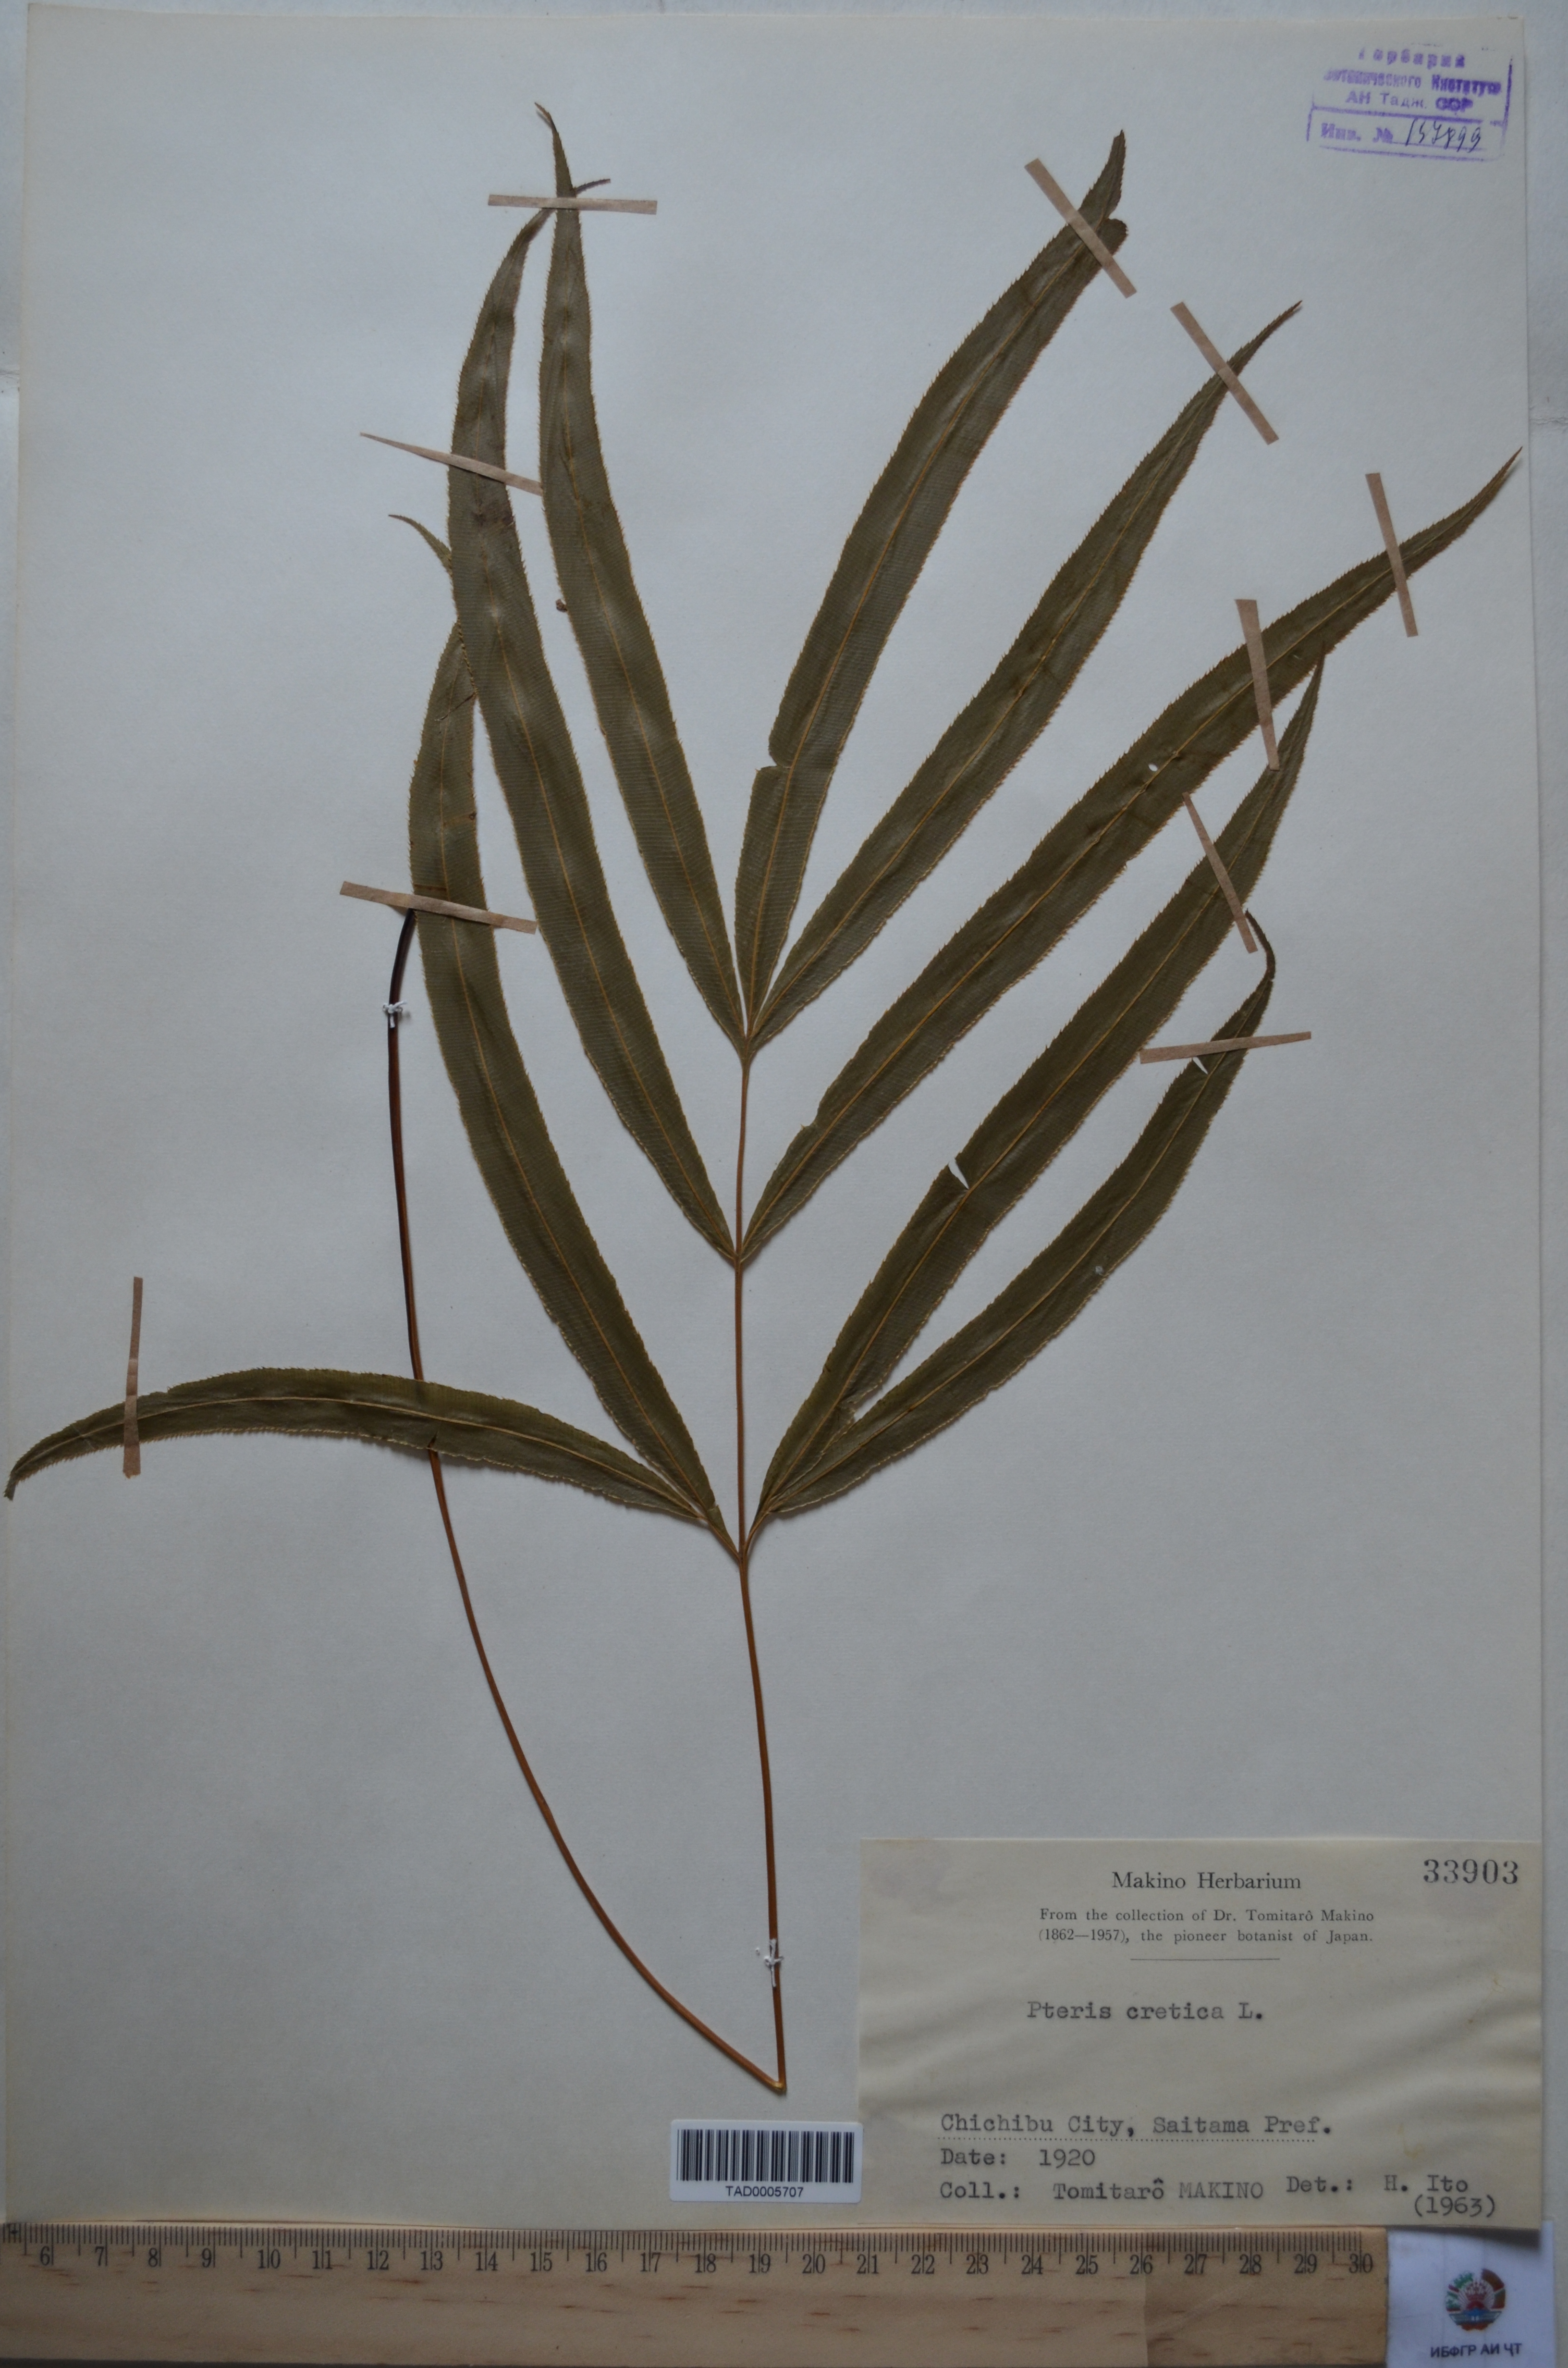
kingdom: Plantae
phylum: Tracheophyta
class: Polypodiopsida
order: Polypodiales
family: Pteridaceae
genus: Pteris
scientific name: Pteris cretica
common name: Ribbon fern
